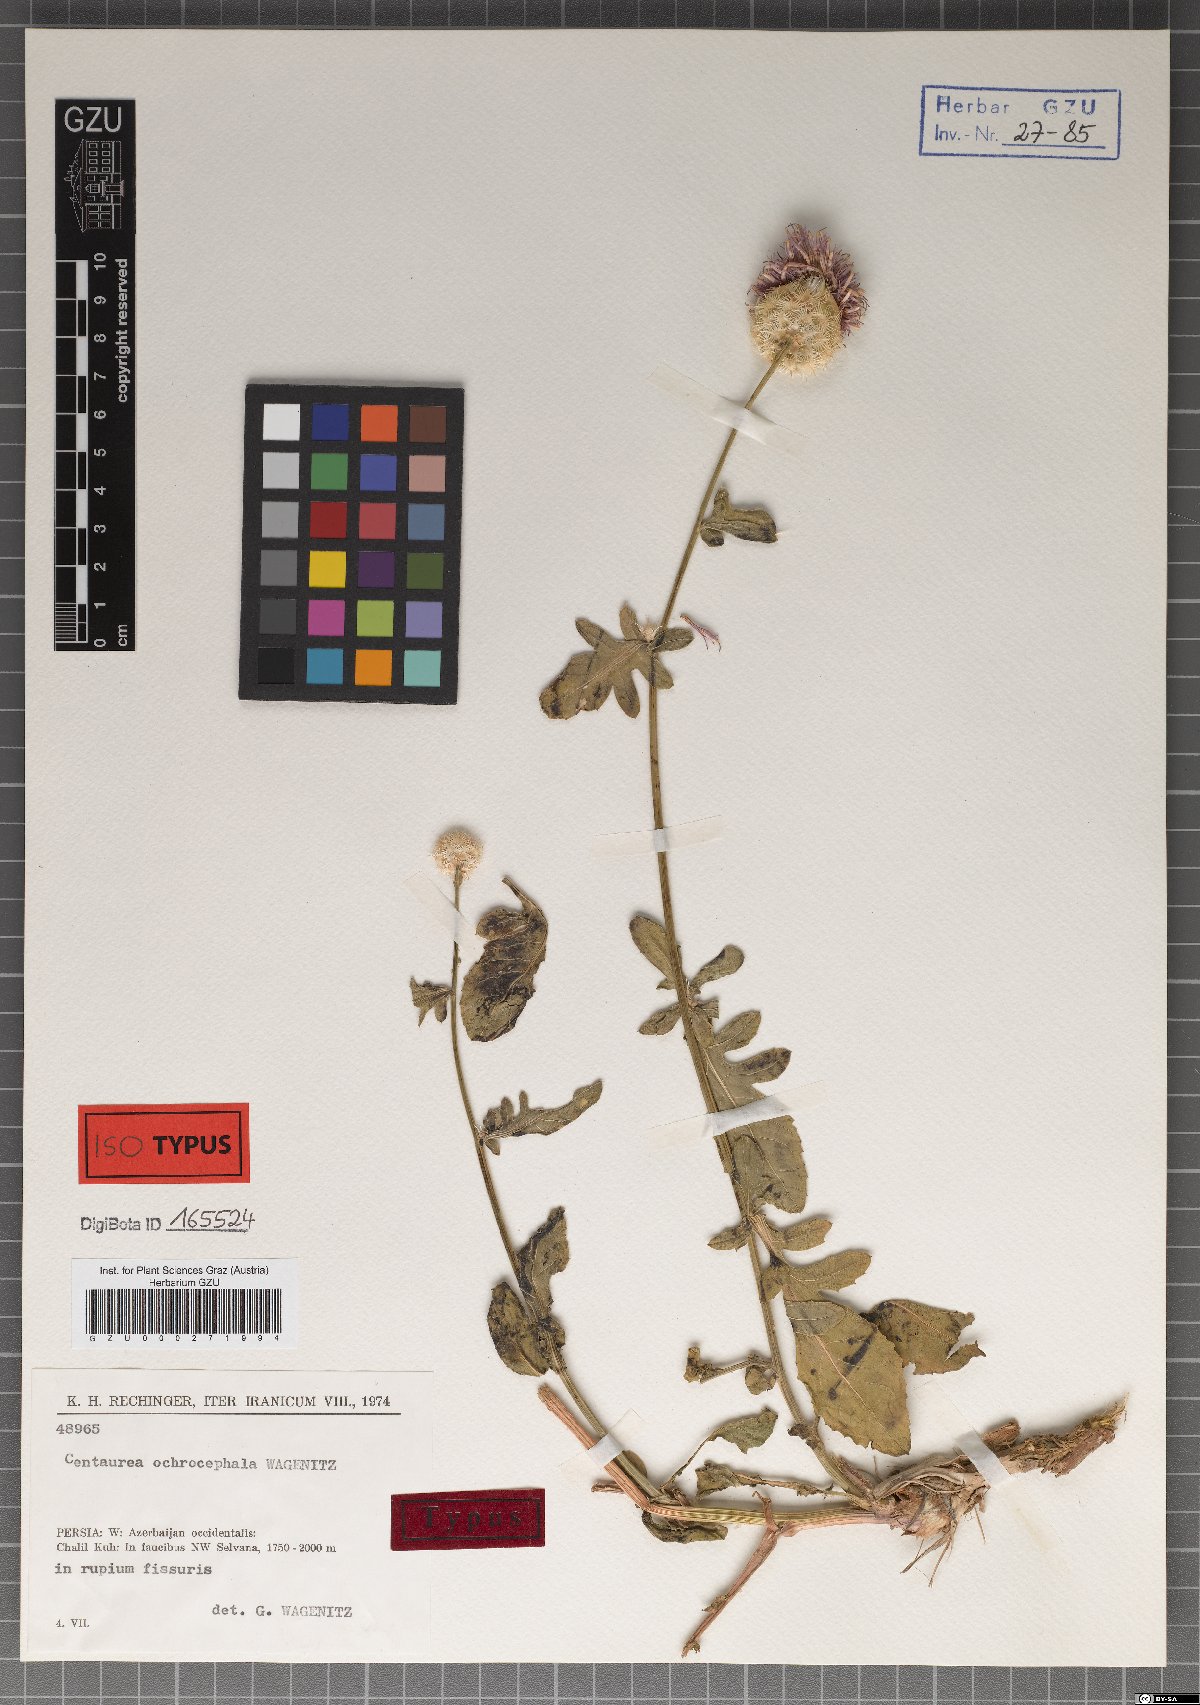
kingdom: Plantae
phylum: Tracheophyta
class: Magnoliopsida
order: Asterales
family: Asteraceae
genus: Centaurea
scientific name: Centaurea ochrocephala
